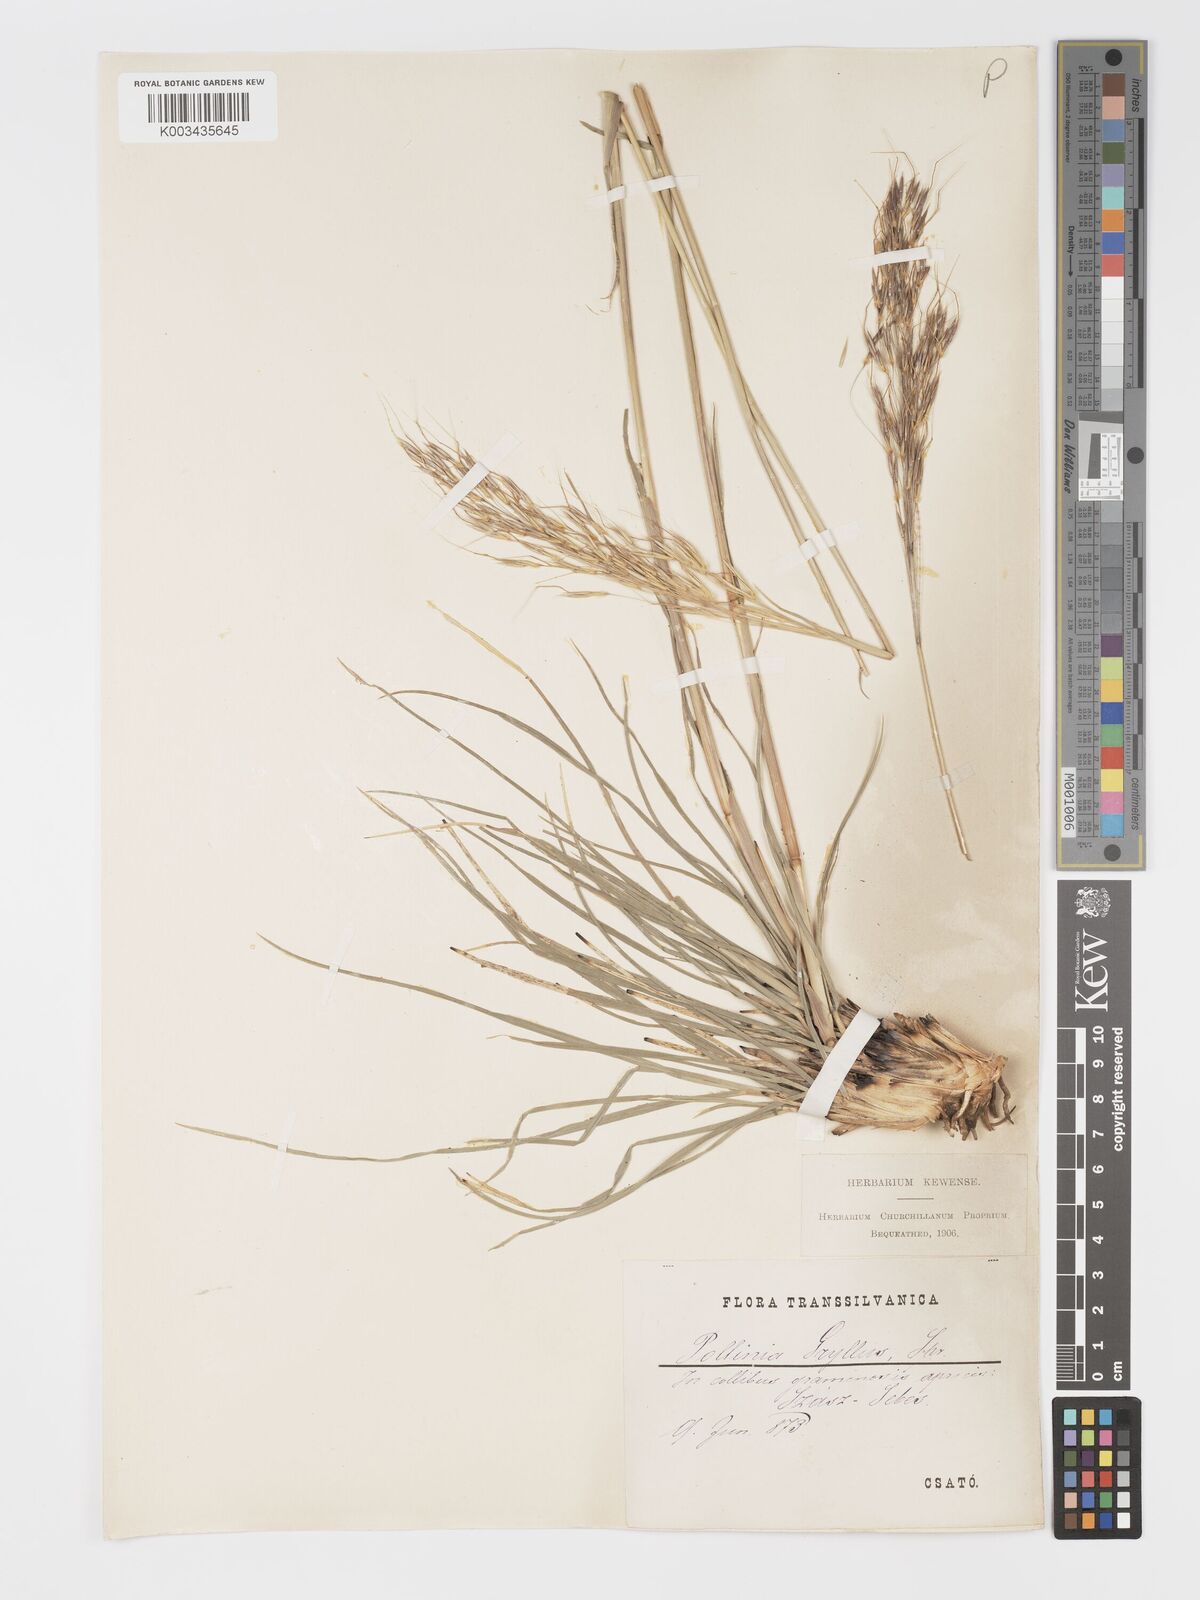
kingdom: Plantae
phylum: Tracheophyta
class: Liliopsida
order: Poales
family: Poaceae
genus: Chrysopogon
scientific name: Chrysopogon gryllus
